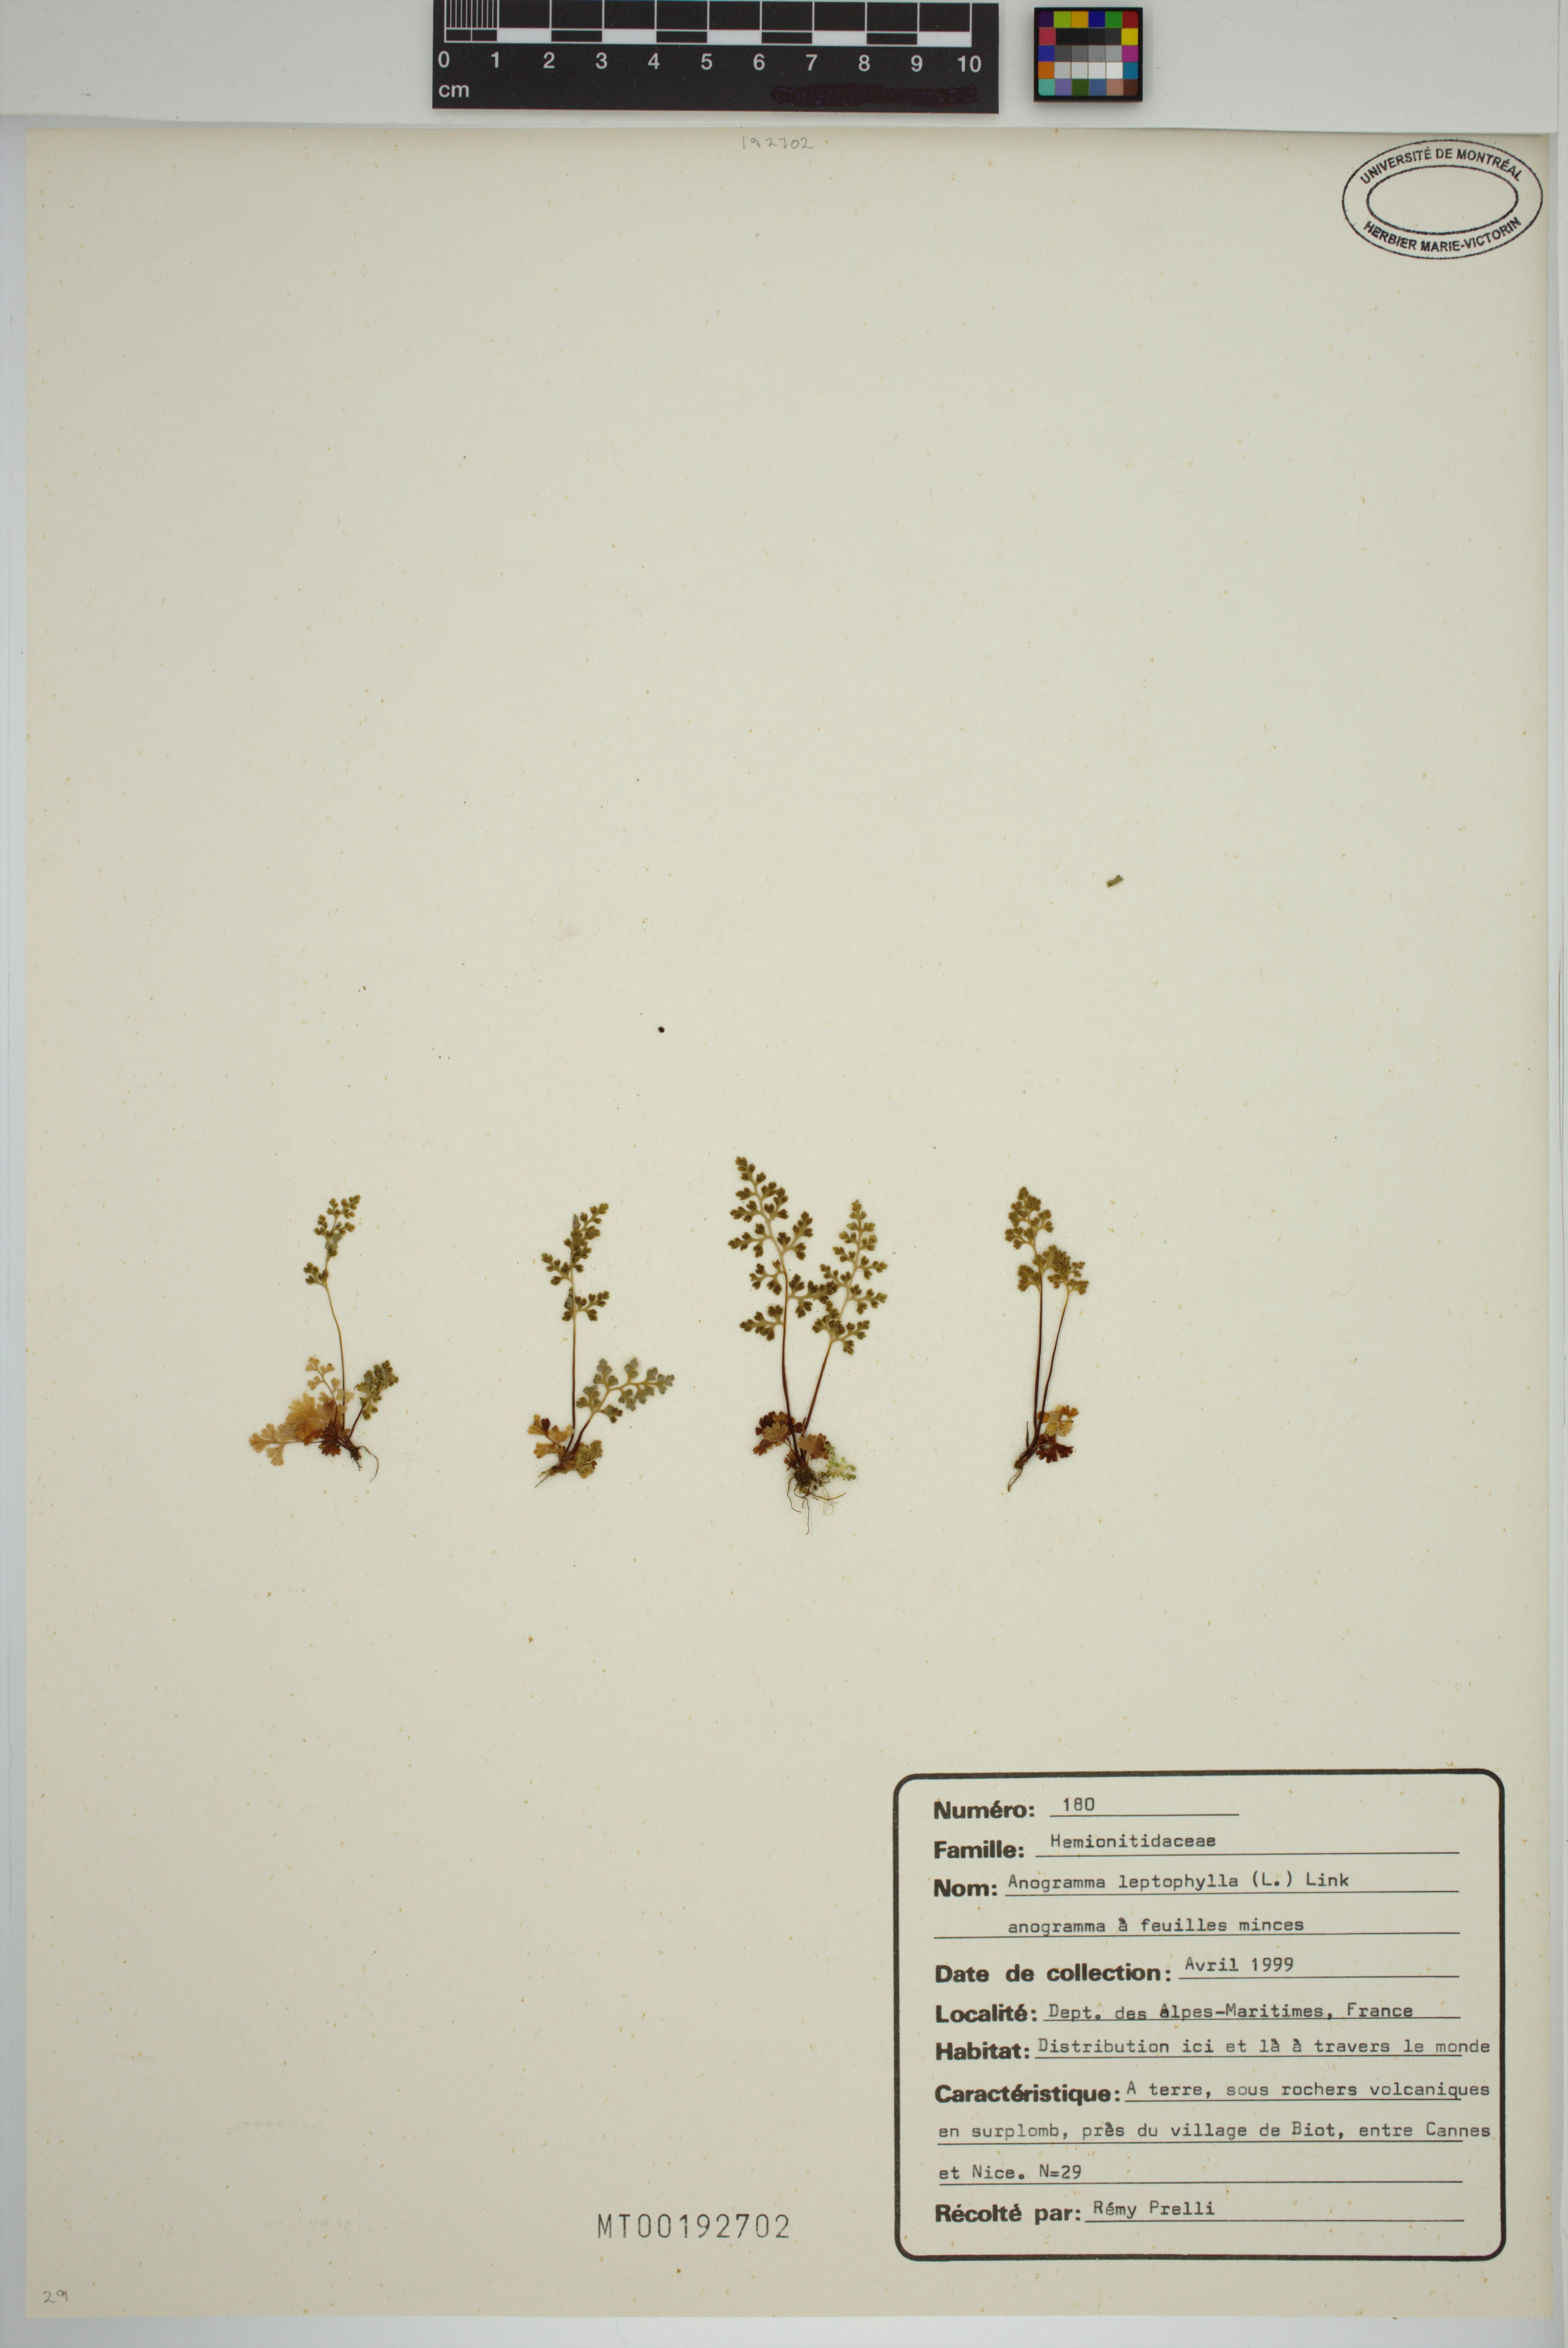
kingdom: Plantae
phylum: Tracheophyta
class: Polypodiopsida
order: Polypodiales
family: Pteridaceae
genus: Anogramma
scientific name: Anogramma leptophylla
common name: Jersey fern
